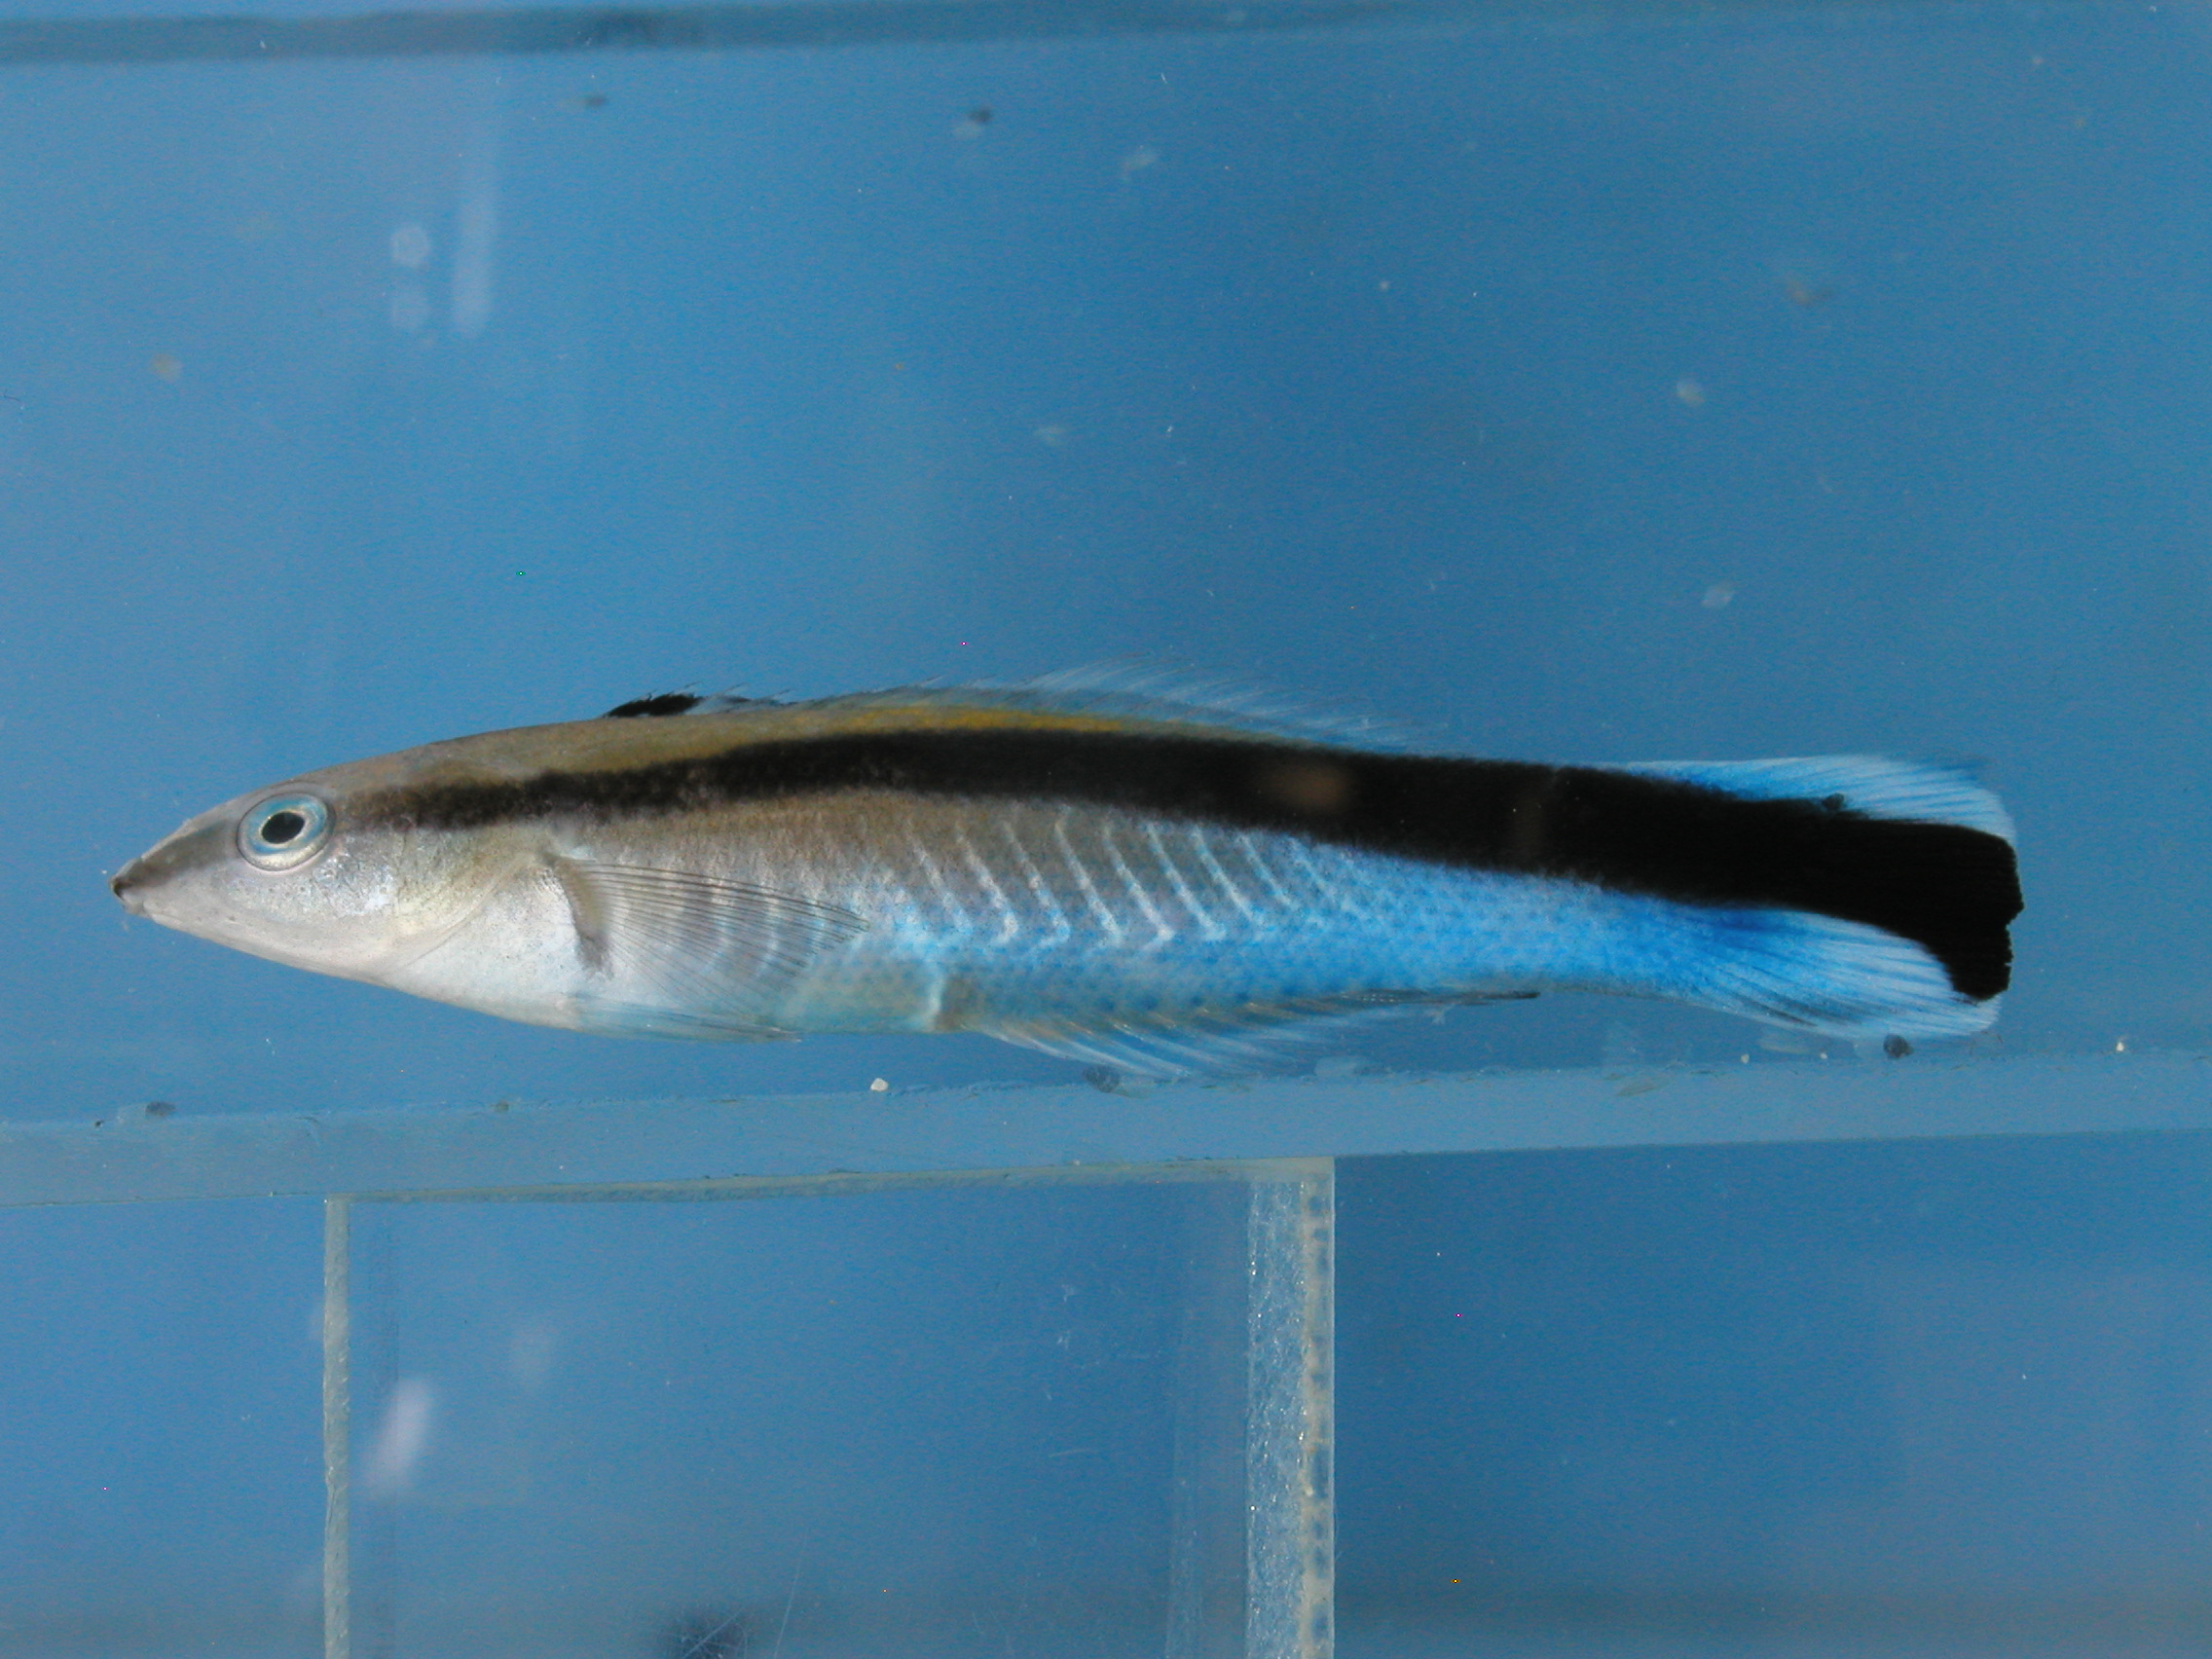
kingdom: Animalia
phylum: Chordata
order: Perciformes
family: Labridae
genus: Labroides
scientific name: Labroides dimidiatus
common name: Blue diesel wrasse
